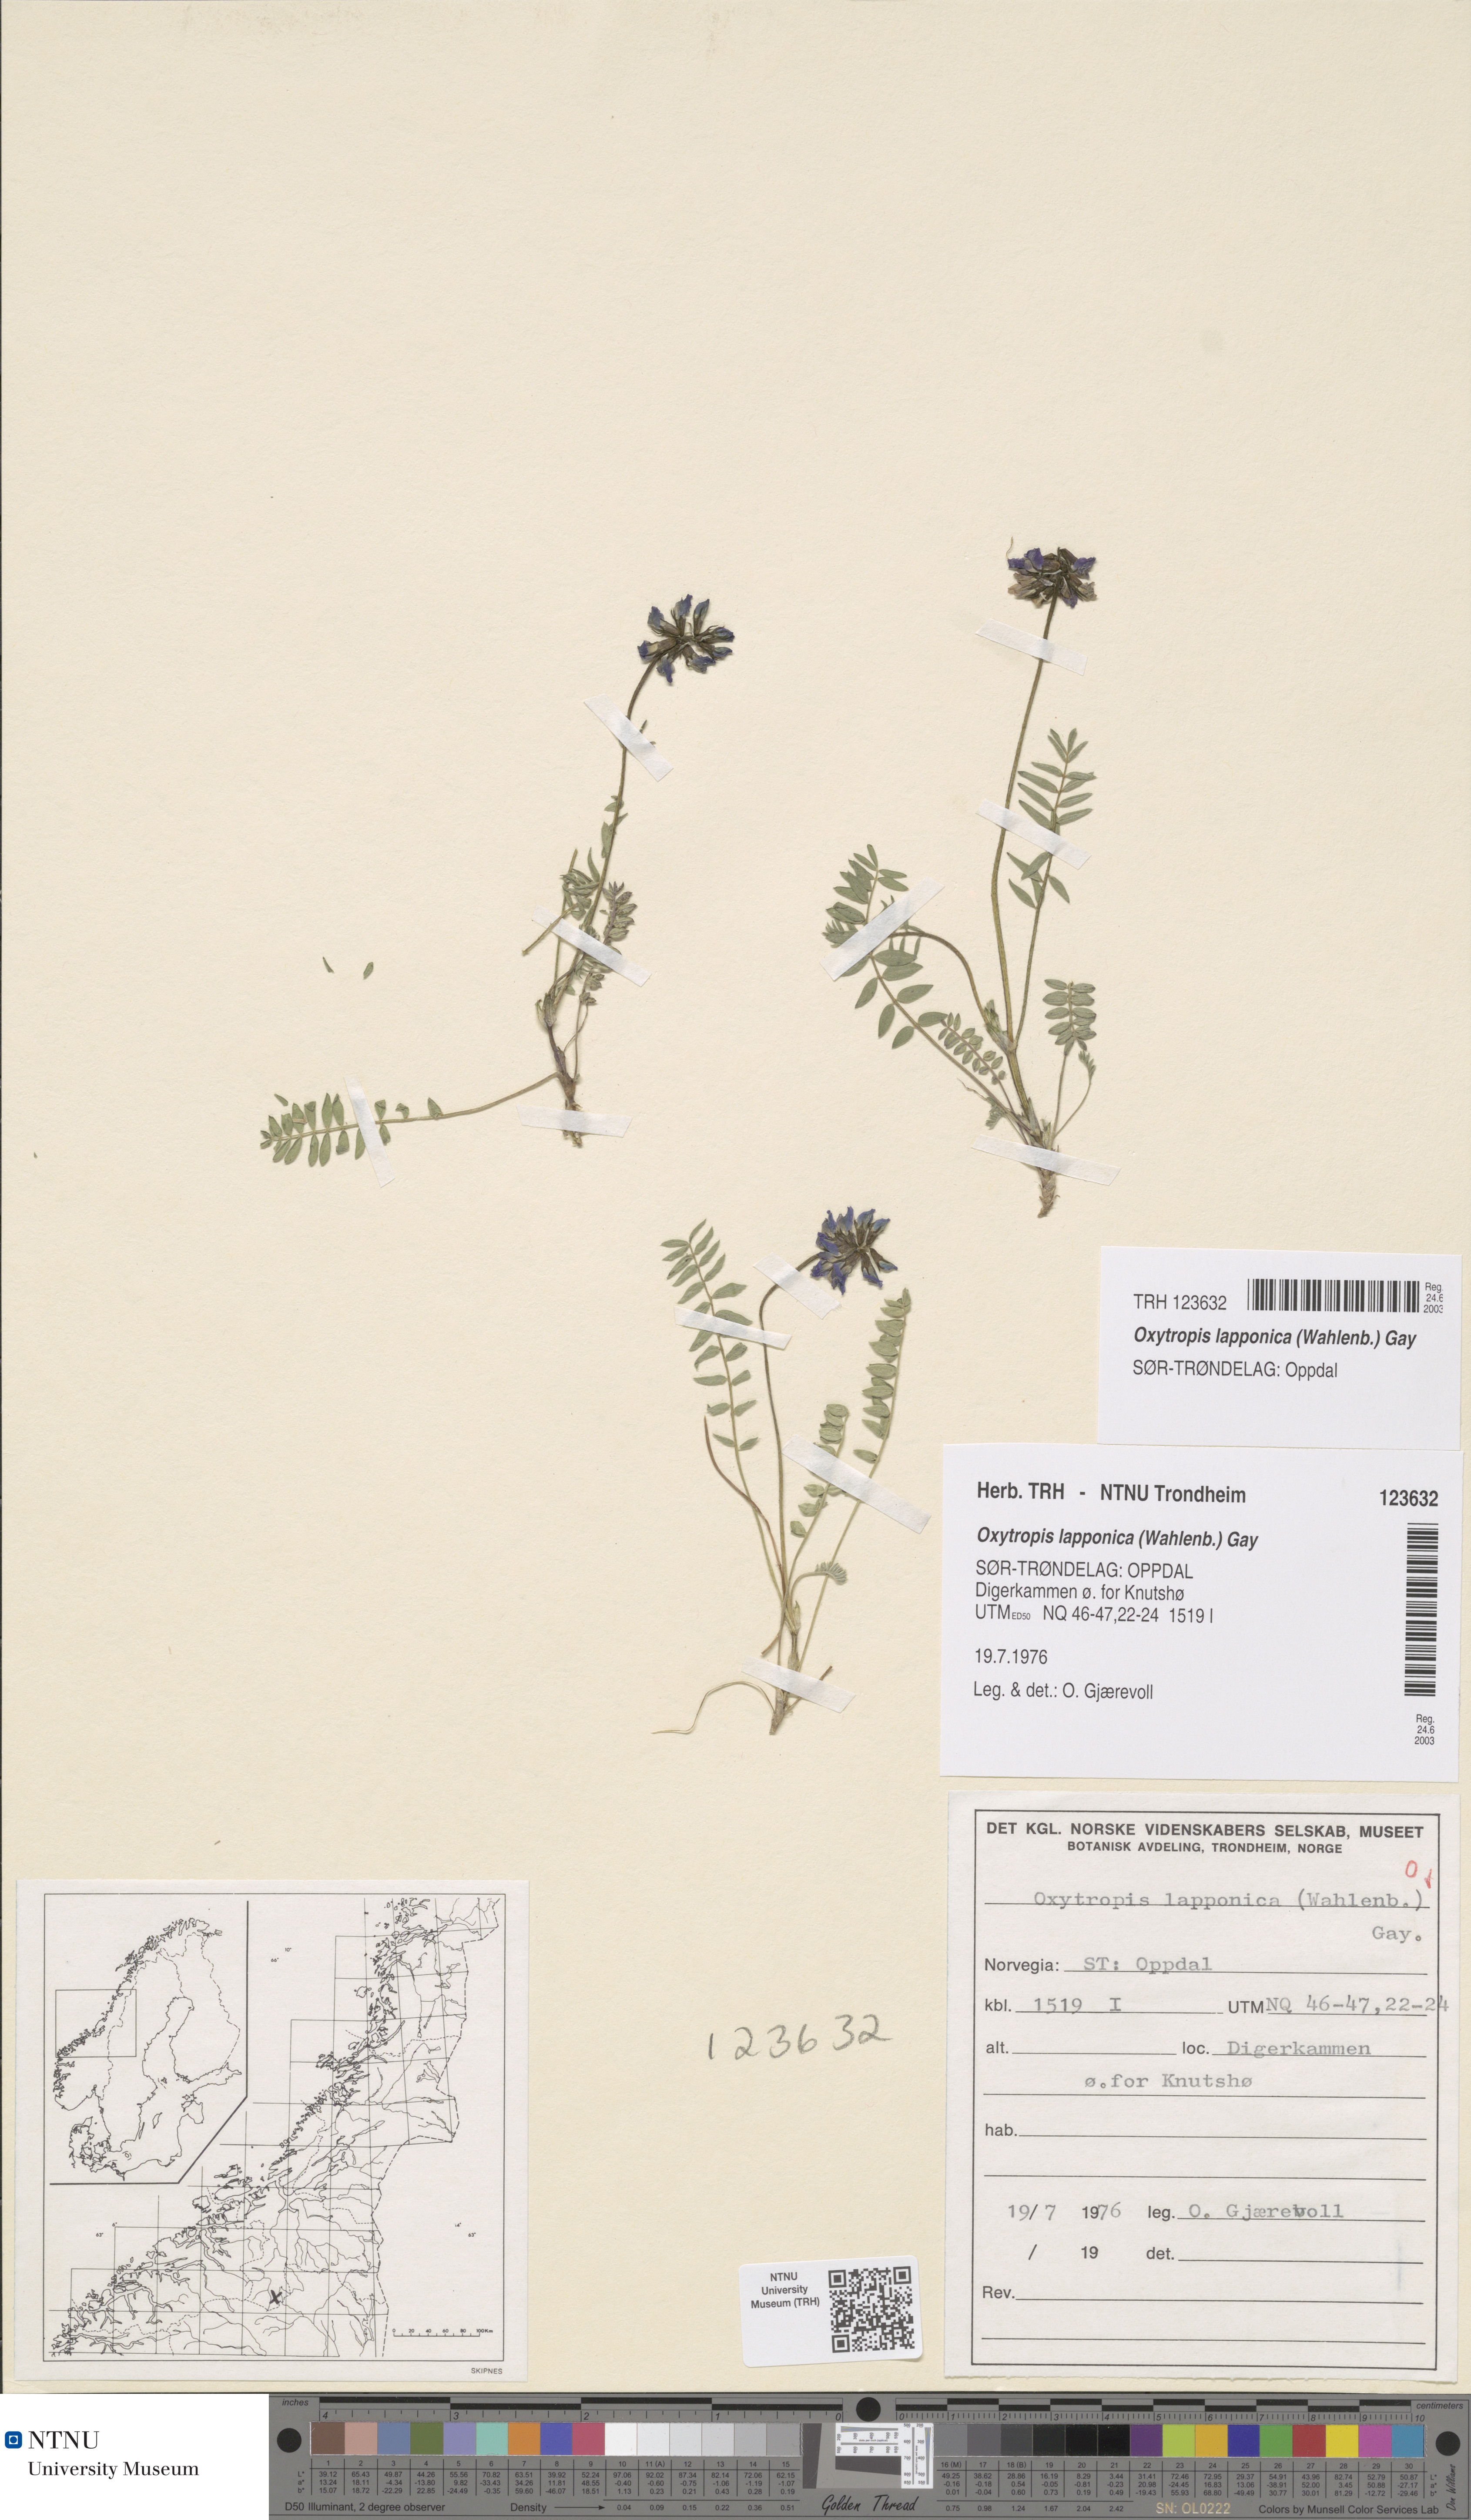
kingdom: Plantae
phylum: Tracheophyta
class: Magnoliopsida
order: Fabales
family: Fabaceae
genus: Oxytropis
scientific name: Oxytropis lapponica
